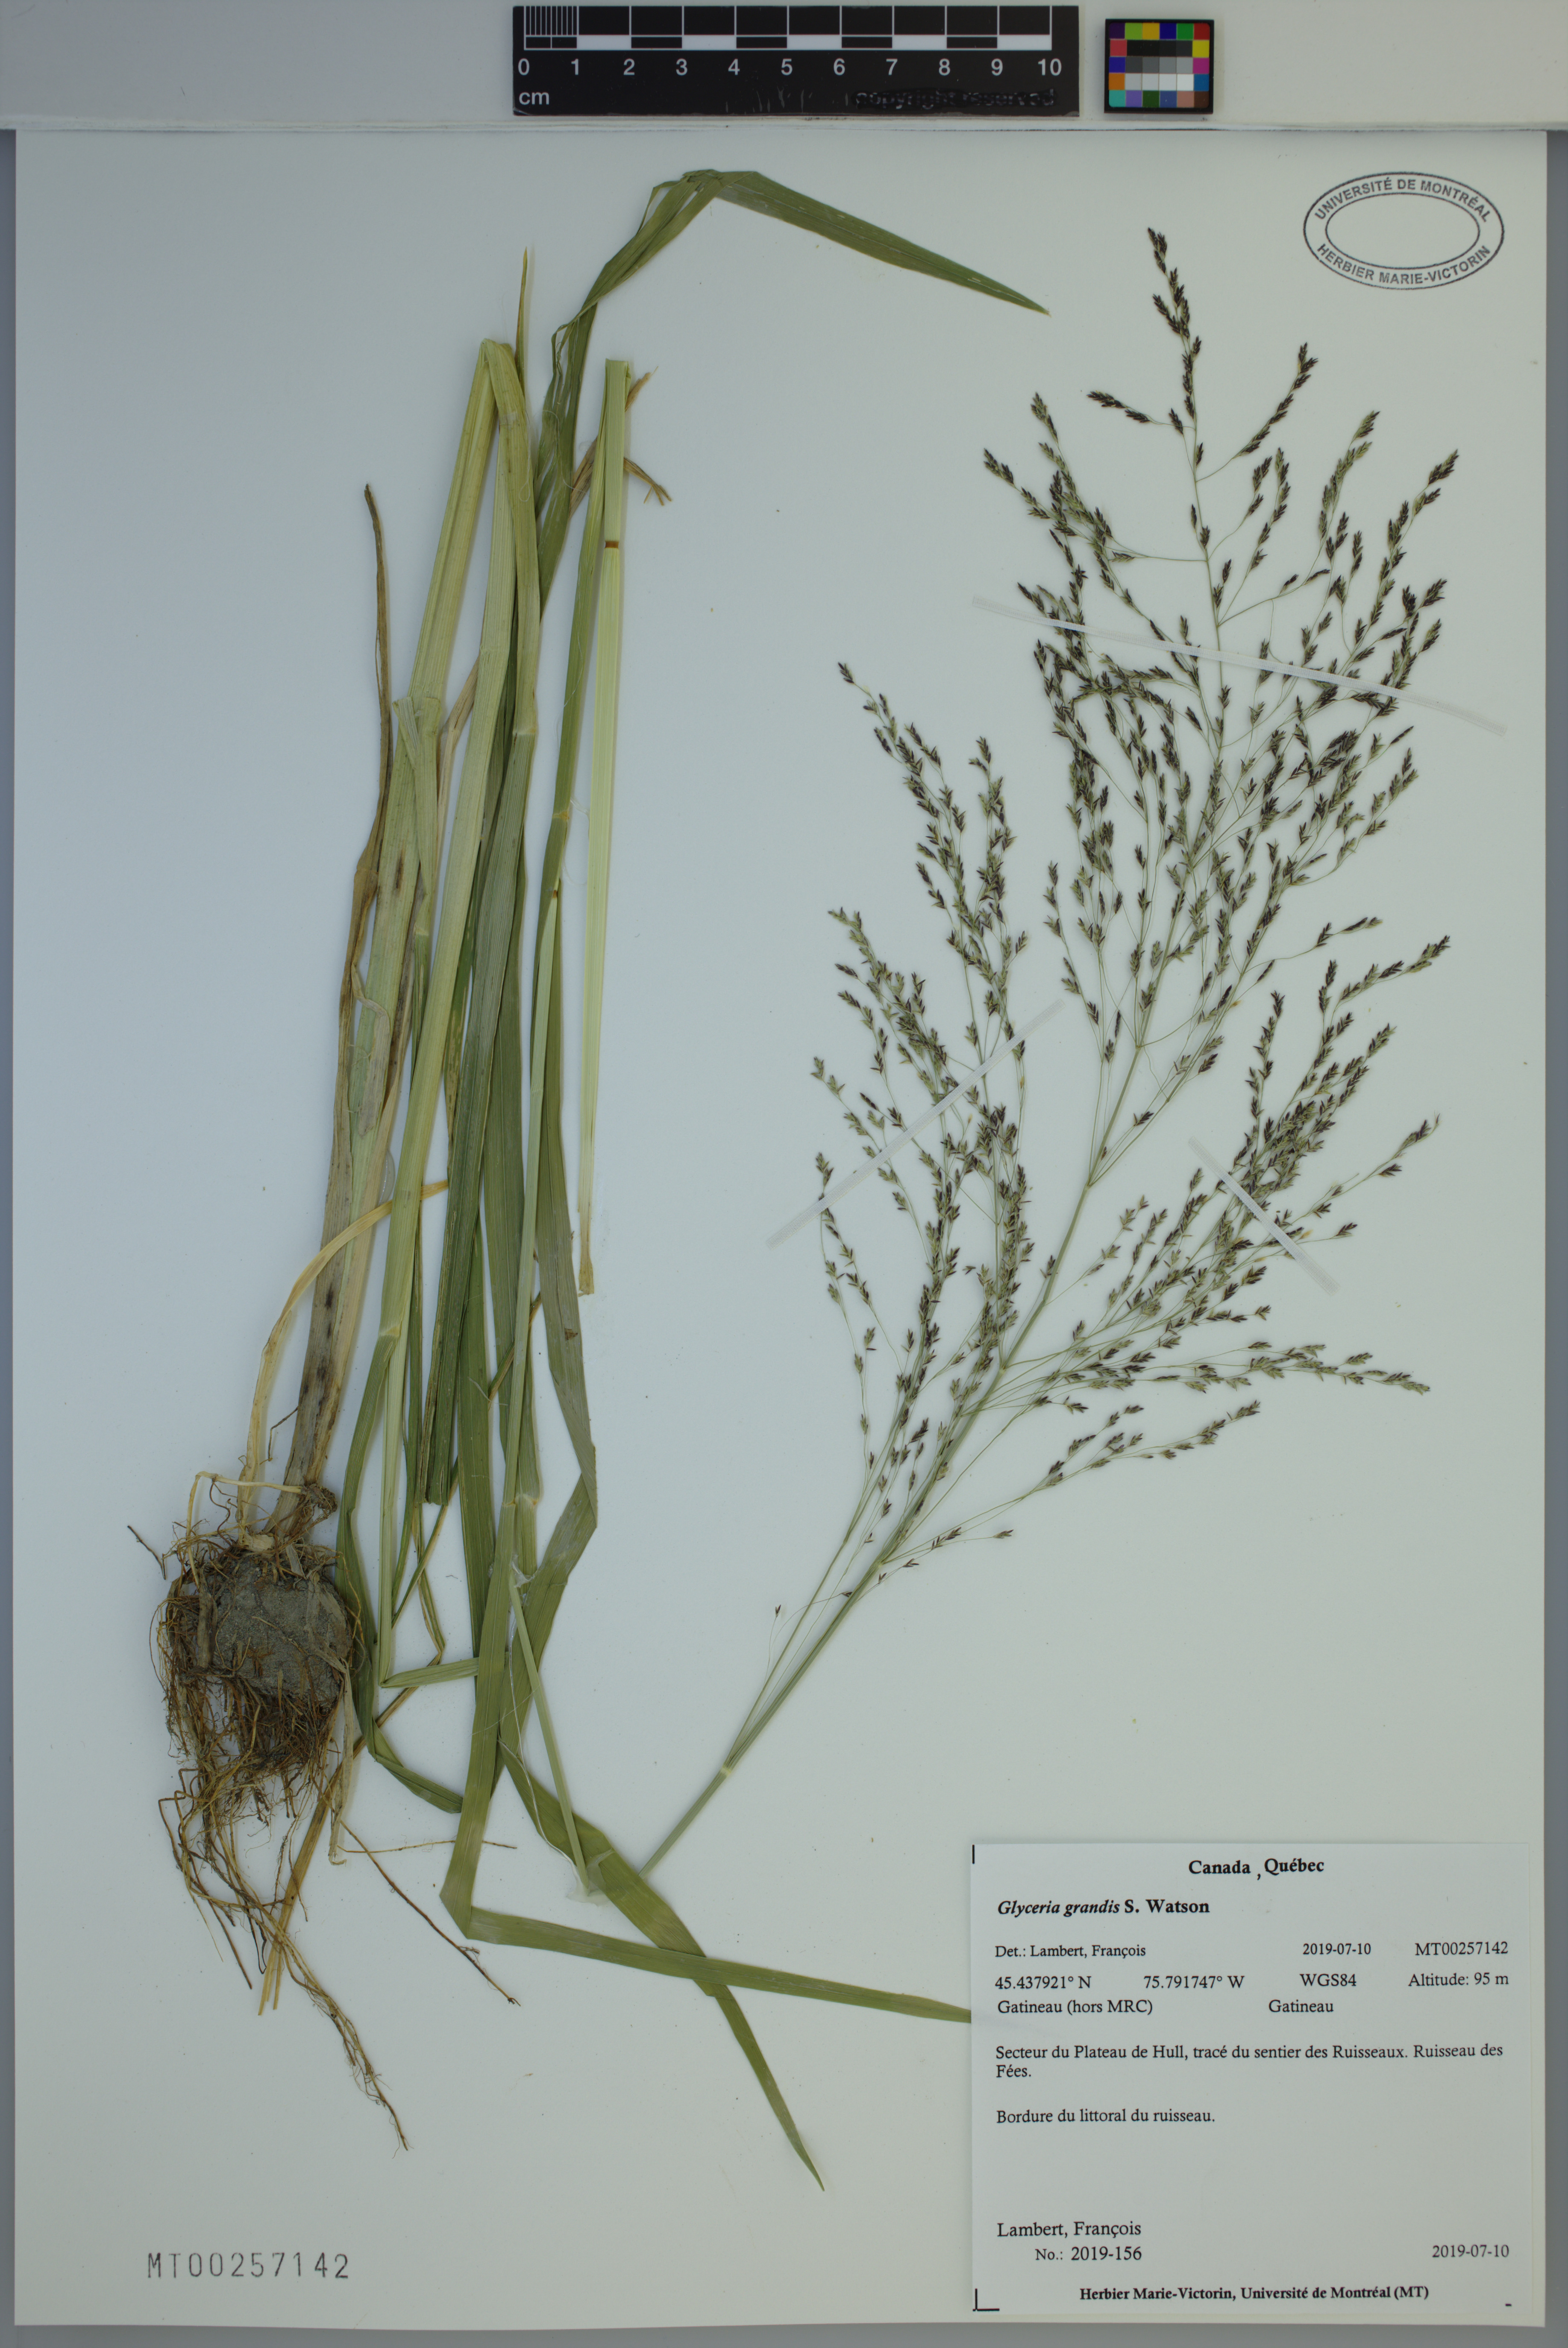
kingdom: Plantae
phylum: Tracheophyta
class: Liliopsida
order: Poales
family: Poaceae
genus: Glyceria
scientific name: Glyceria grandis
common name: American glyceria
